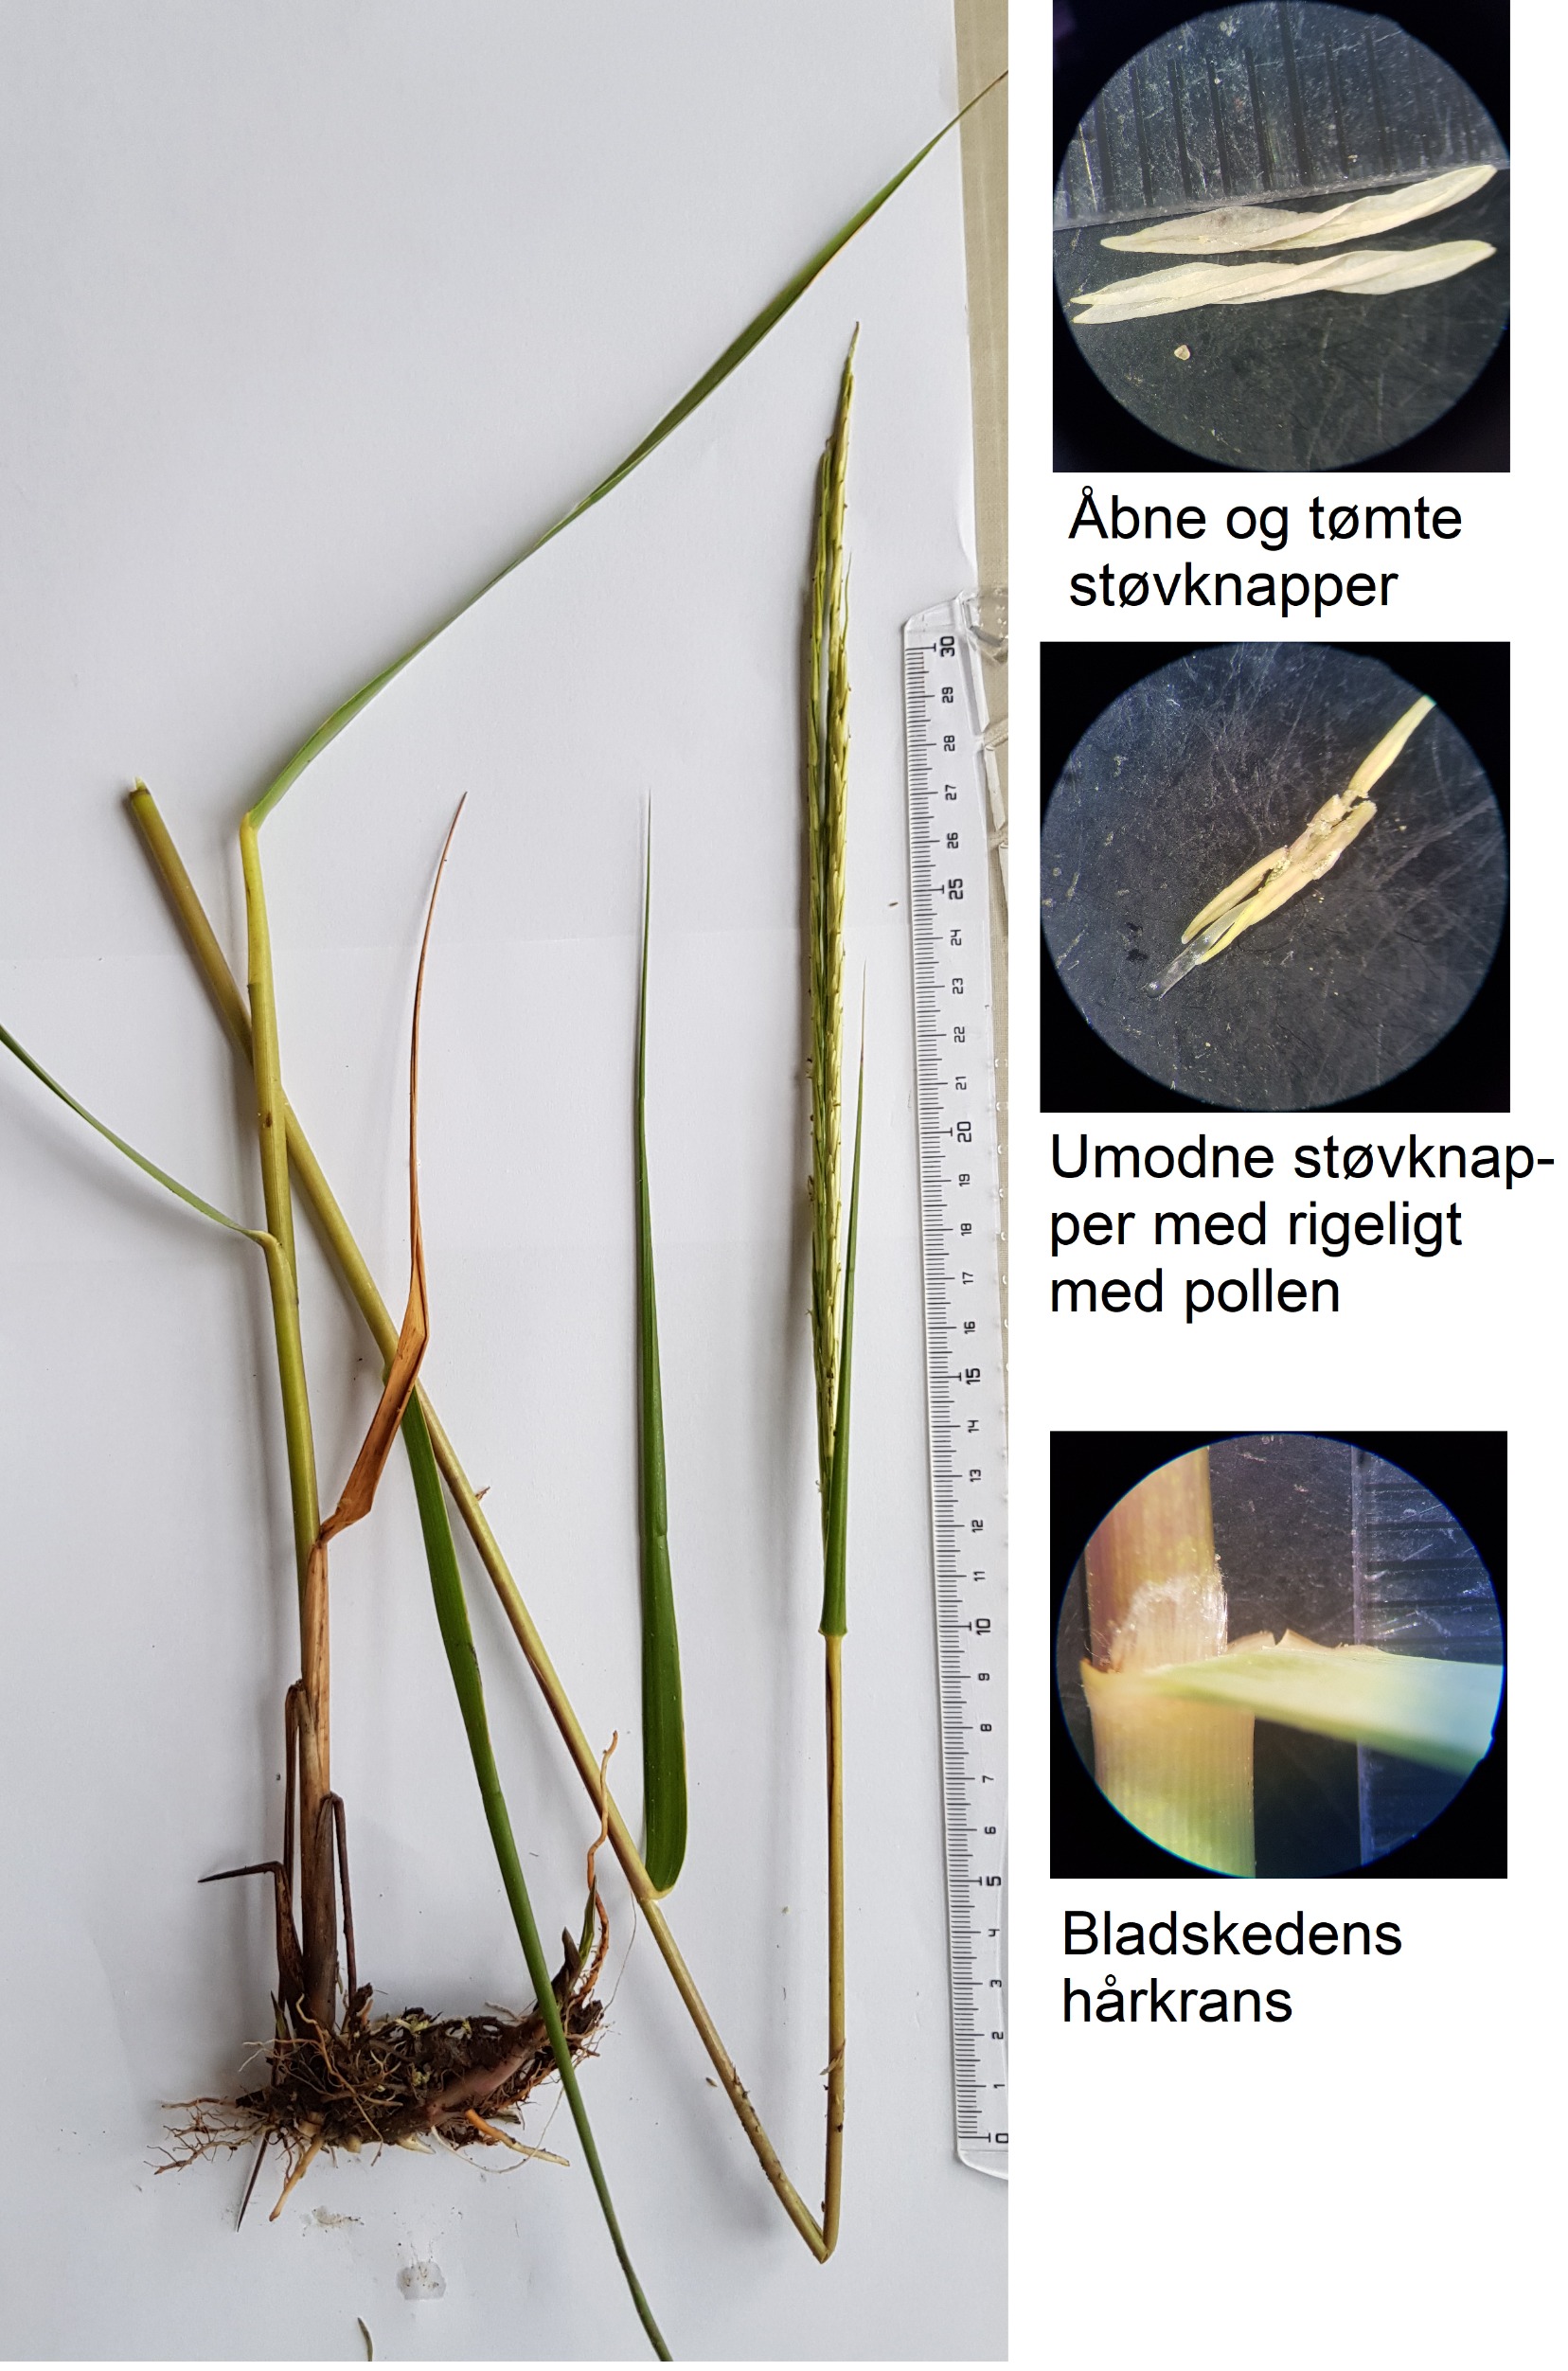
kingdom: Plantae
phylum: Tracheophyta
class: Liliopsida
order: Poales
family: Poaceae
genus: Sporobolus
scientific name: Sporobolus anglicus
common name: Engelsk vadegræs
